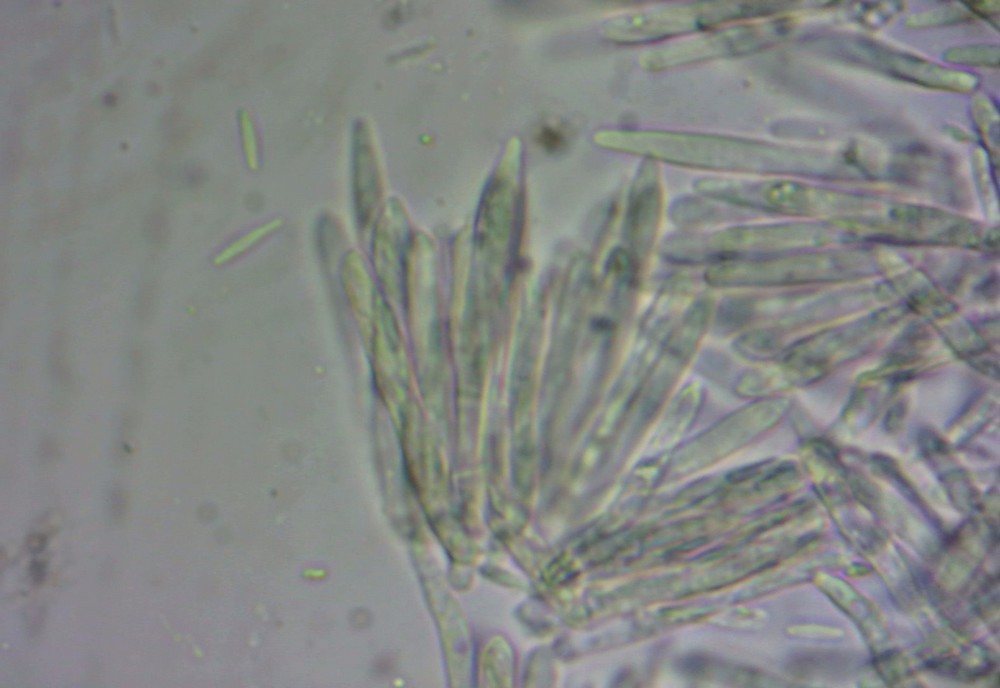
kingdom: Fungi
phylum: Ascomycota
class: Leotiomycetes
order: Helotiales
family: Lachnaceae
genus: Lachnum
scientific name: Lachnum tenuissimum
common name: spinkel frynseskive
